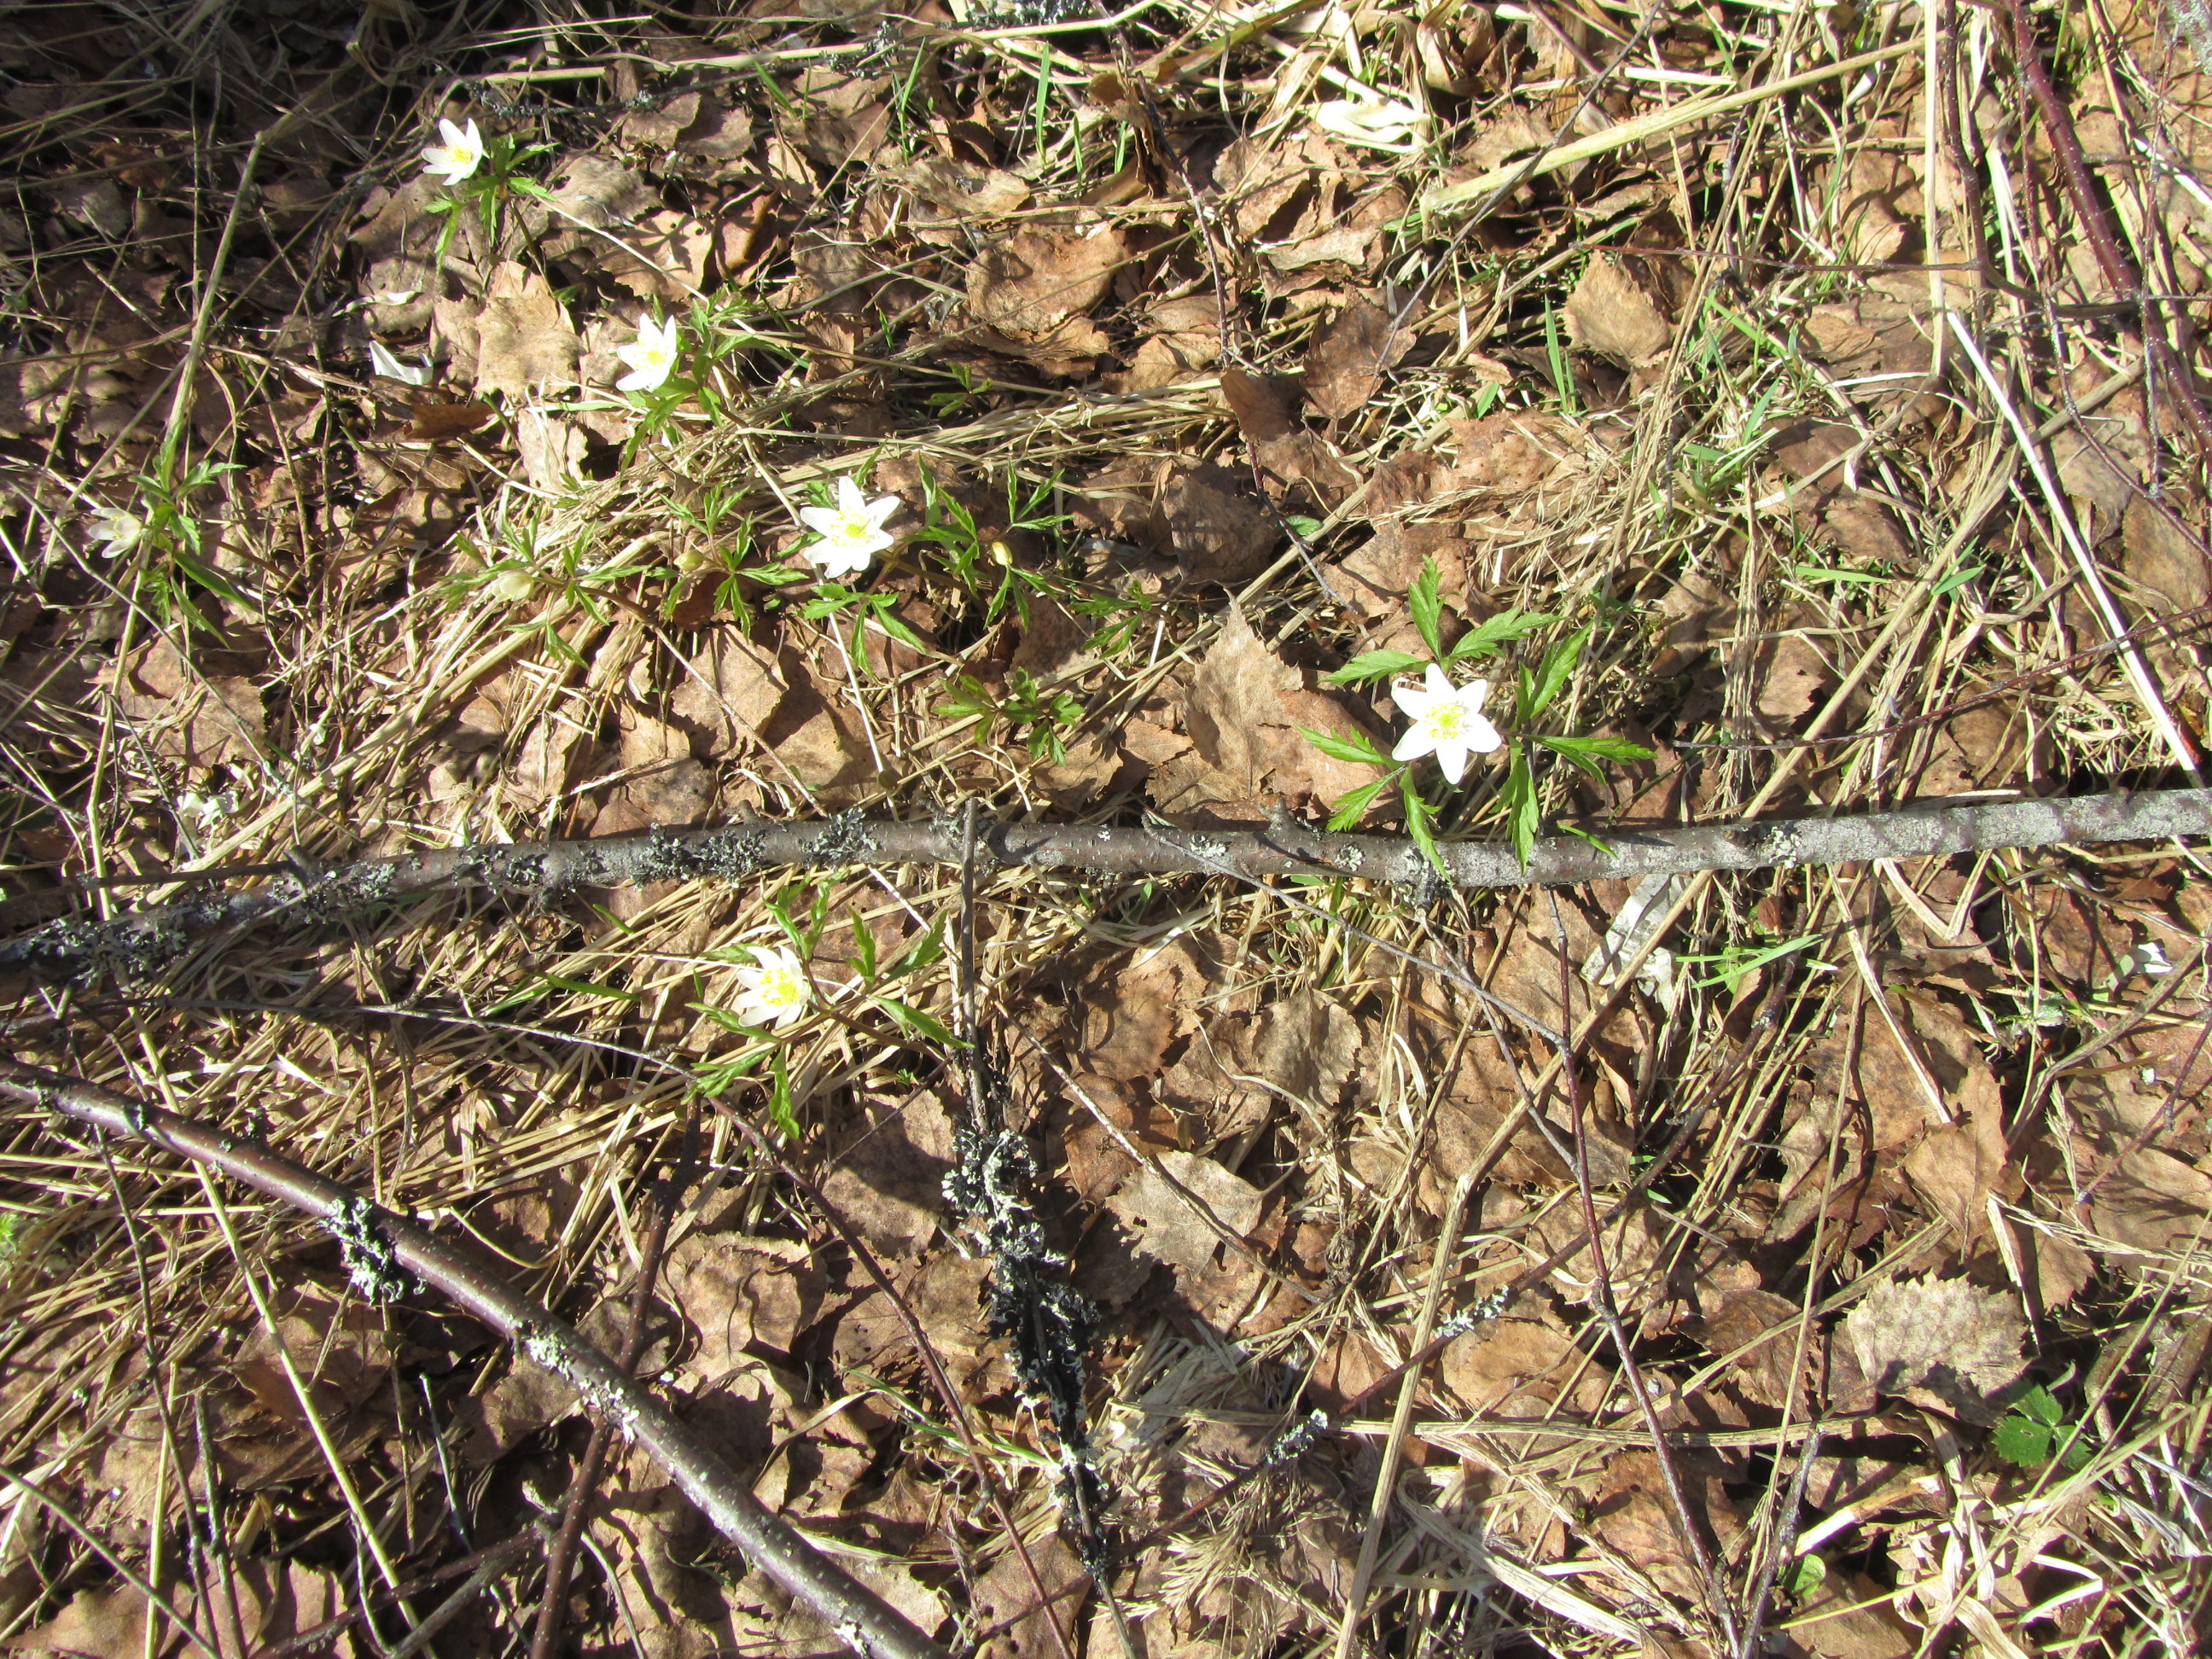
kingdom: Plantae
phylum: Tracheophyta
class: Magnoliopsida
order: Ranunculales
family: Ranunculaceae
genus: Anemone
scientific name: Anemone nemorosa
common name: Wood anemone
